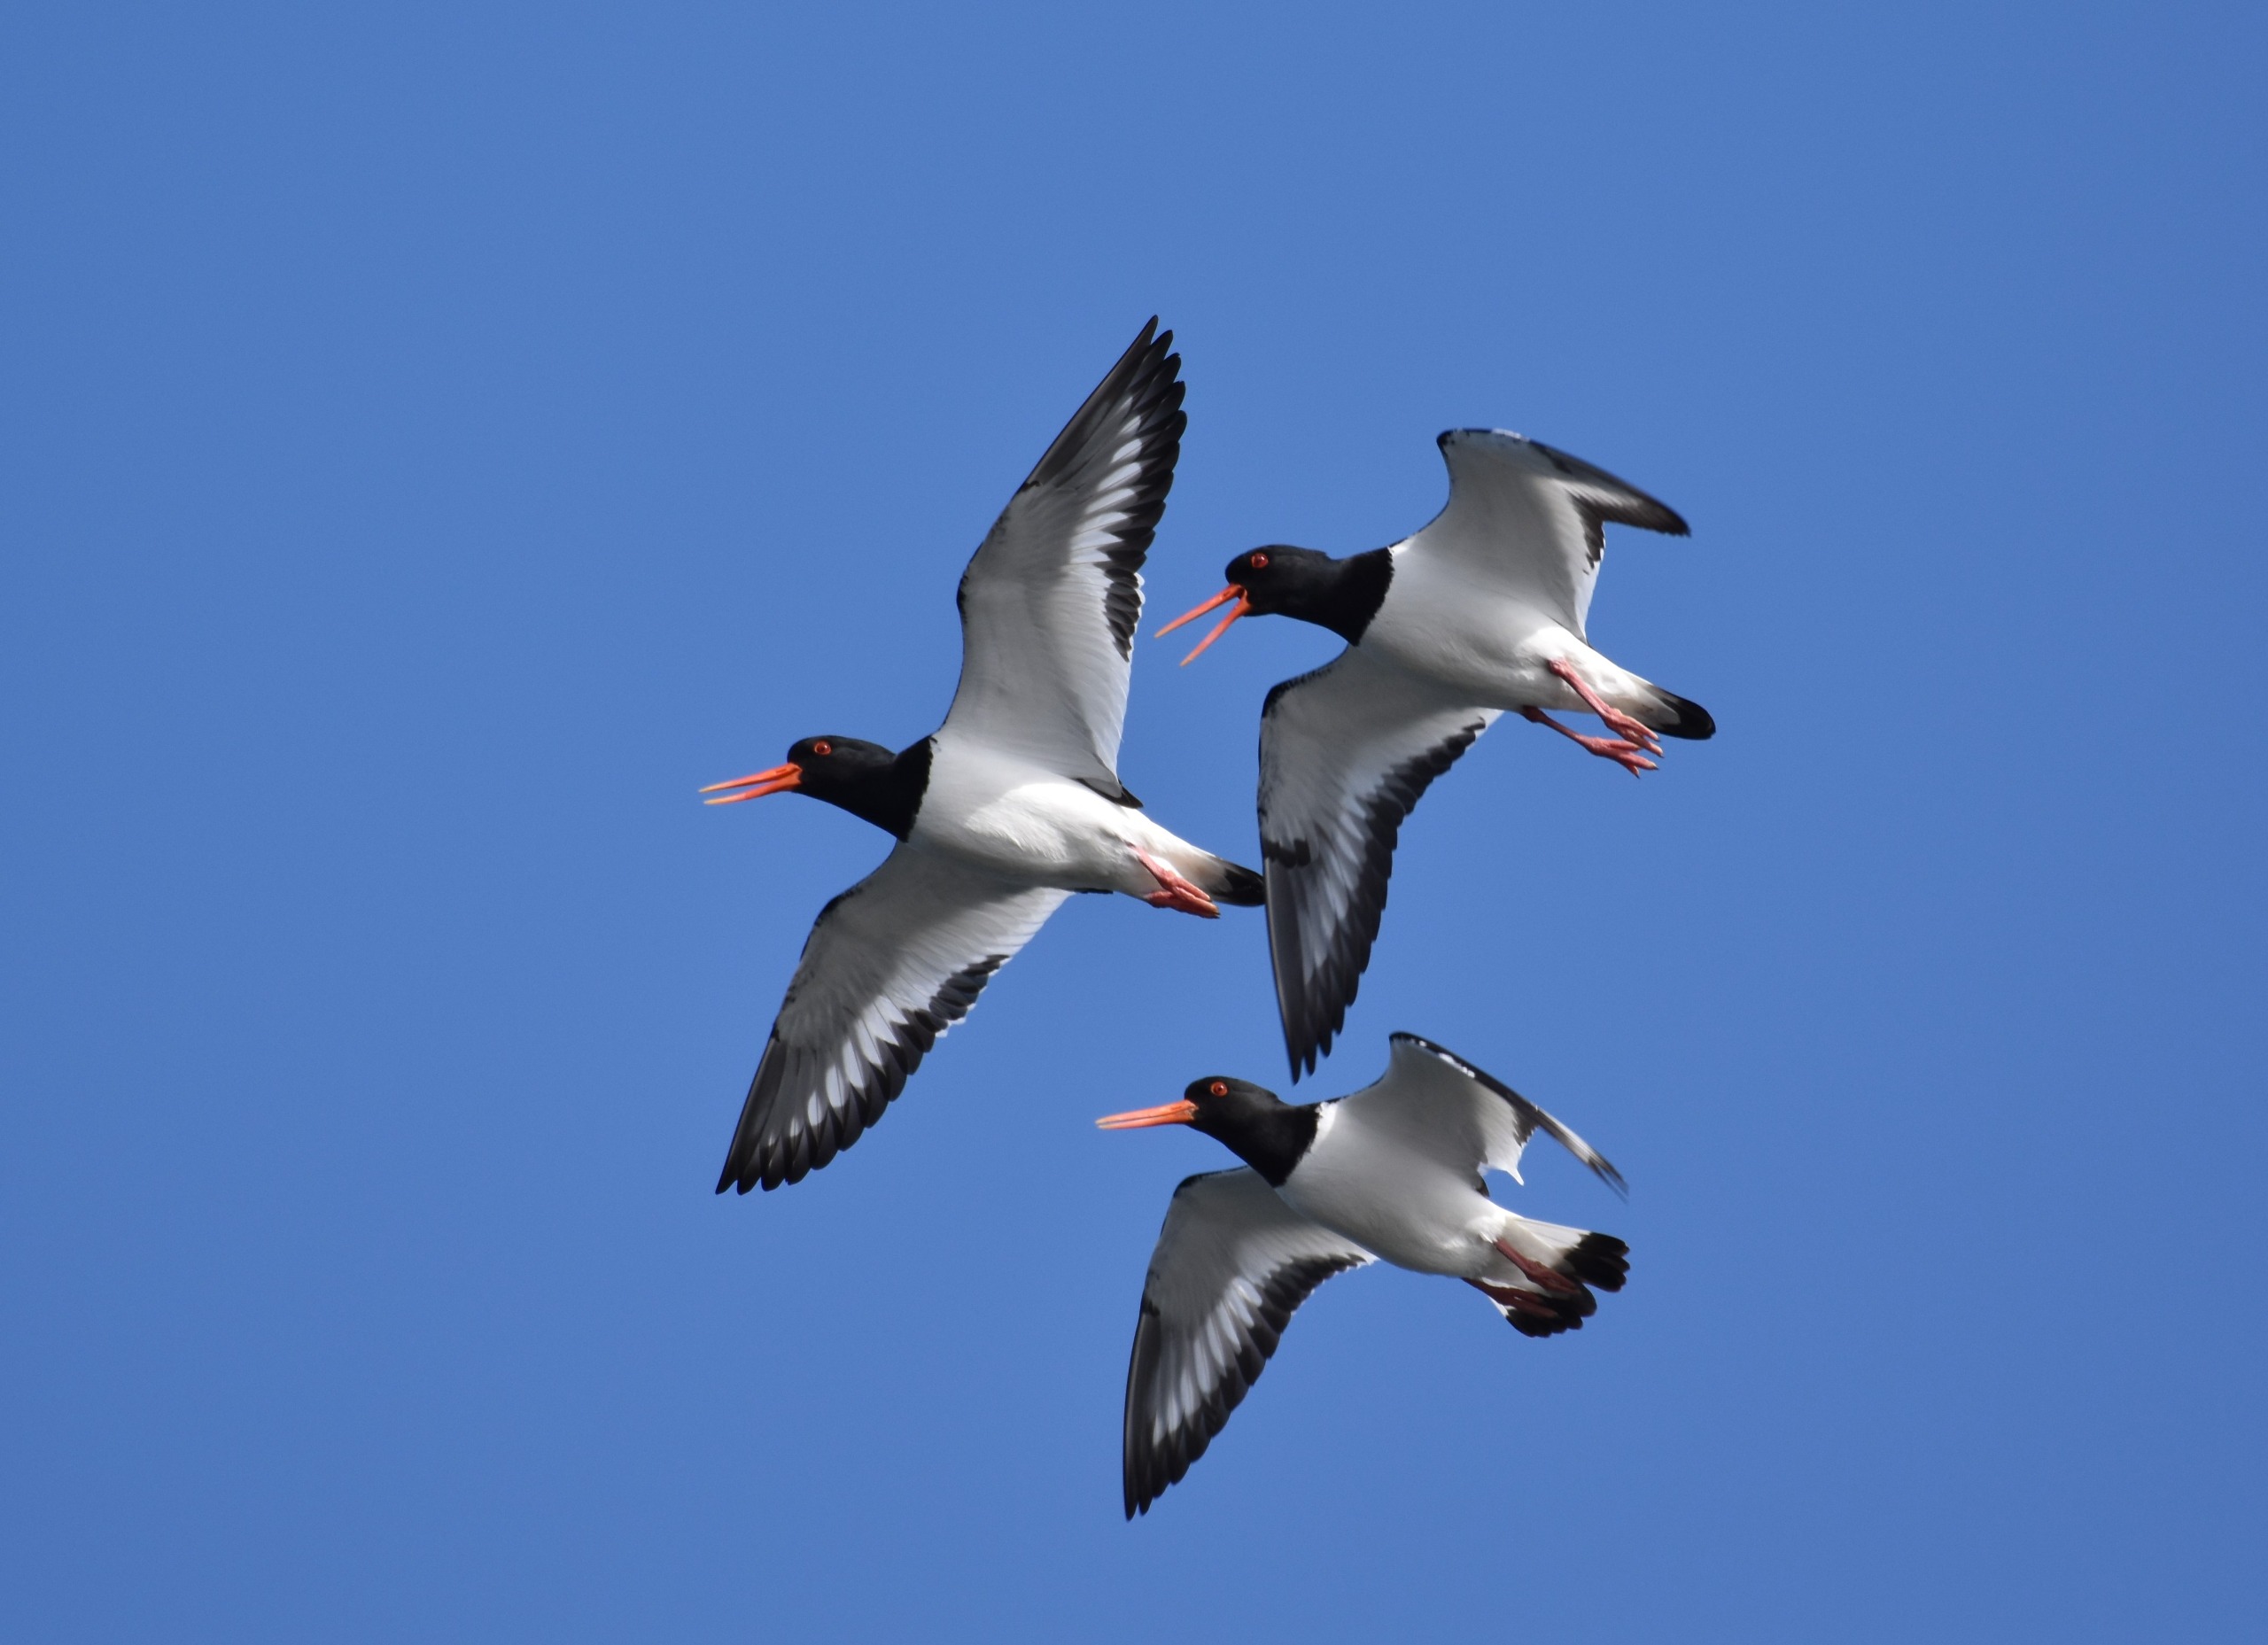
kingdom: Animalia
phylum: Chordata
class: Aves
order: Charadriiformes
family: Haematopodidae
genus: Haematopus
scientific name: Haematopus ostralegus
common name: Strandskade
